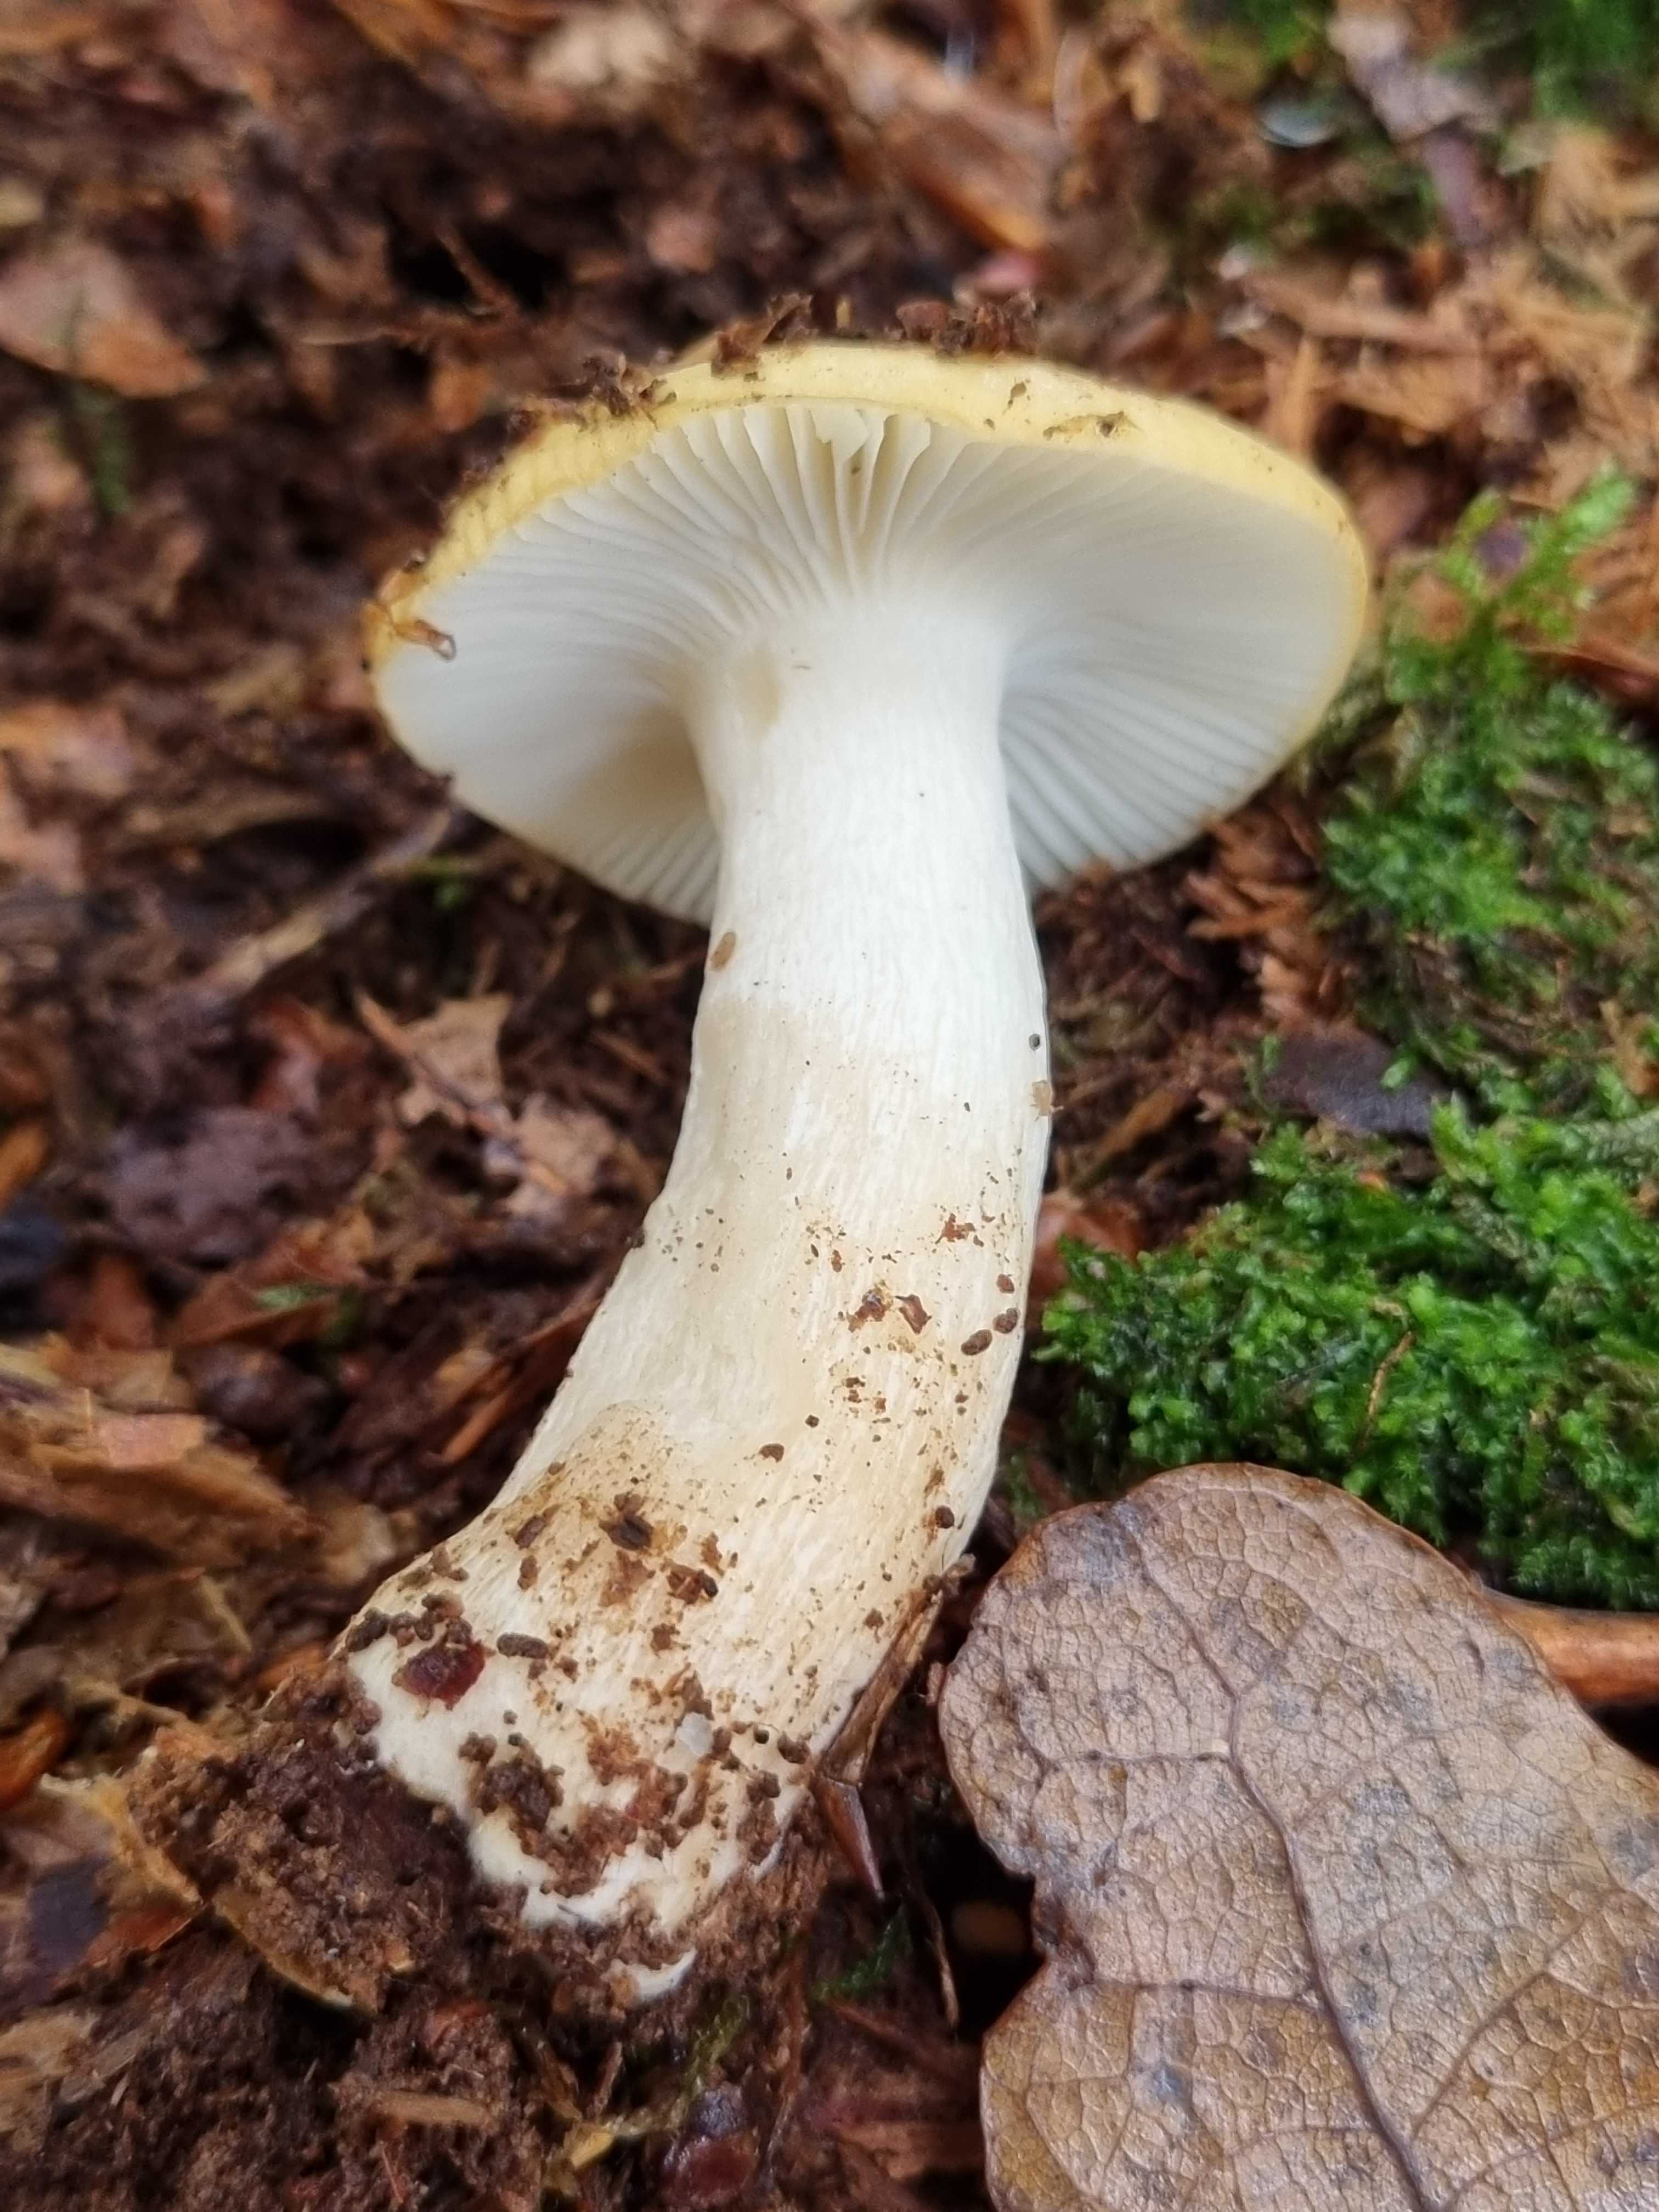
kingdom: Fungi
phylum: Basidiomycota
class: Agaricomycetes
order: Russulales
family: Russulaceae
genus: Russula
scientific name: Russula
